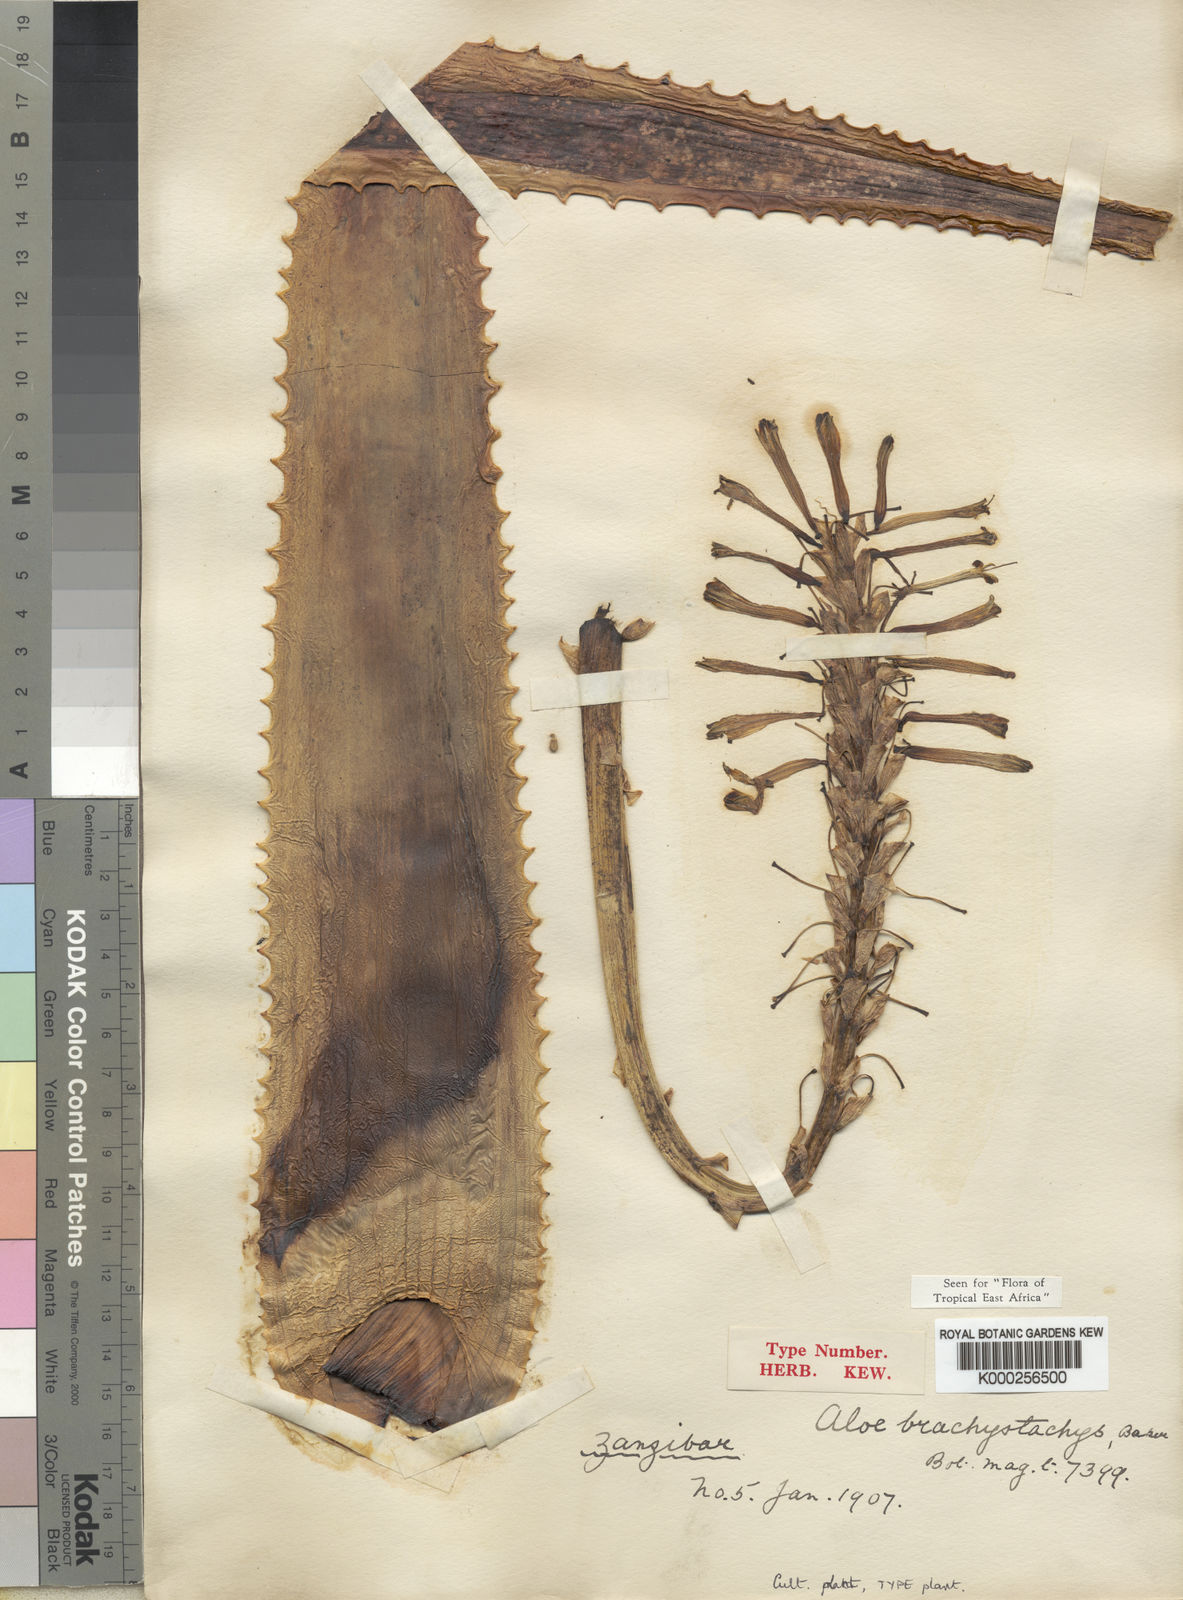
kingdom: Plantae
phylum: Tracheophyta
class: Liliopsida
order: Asparagales
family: Asphodelaceae
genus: Aloe
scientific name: Aloe brachystachys
